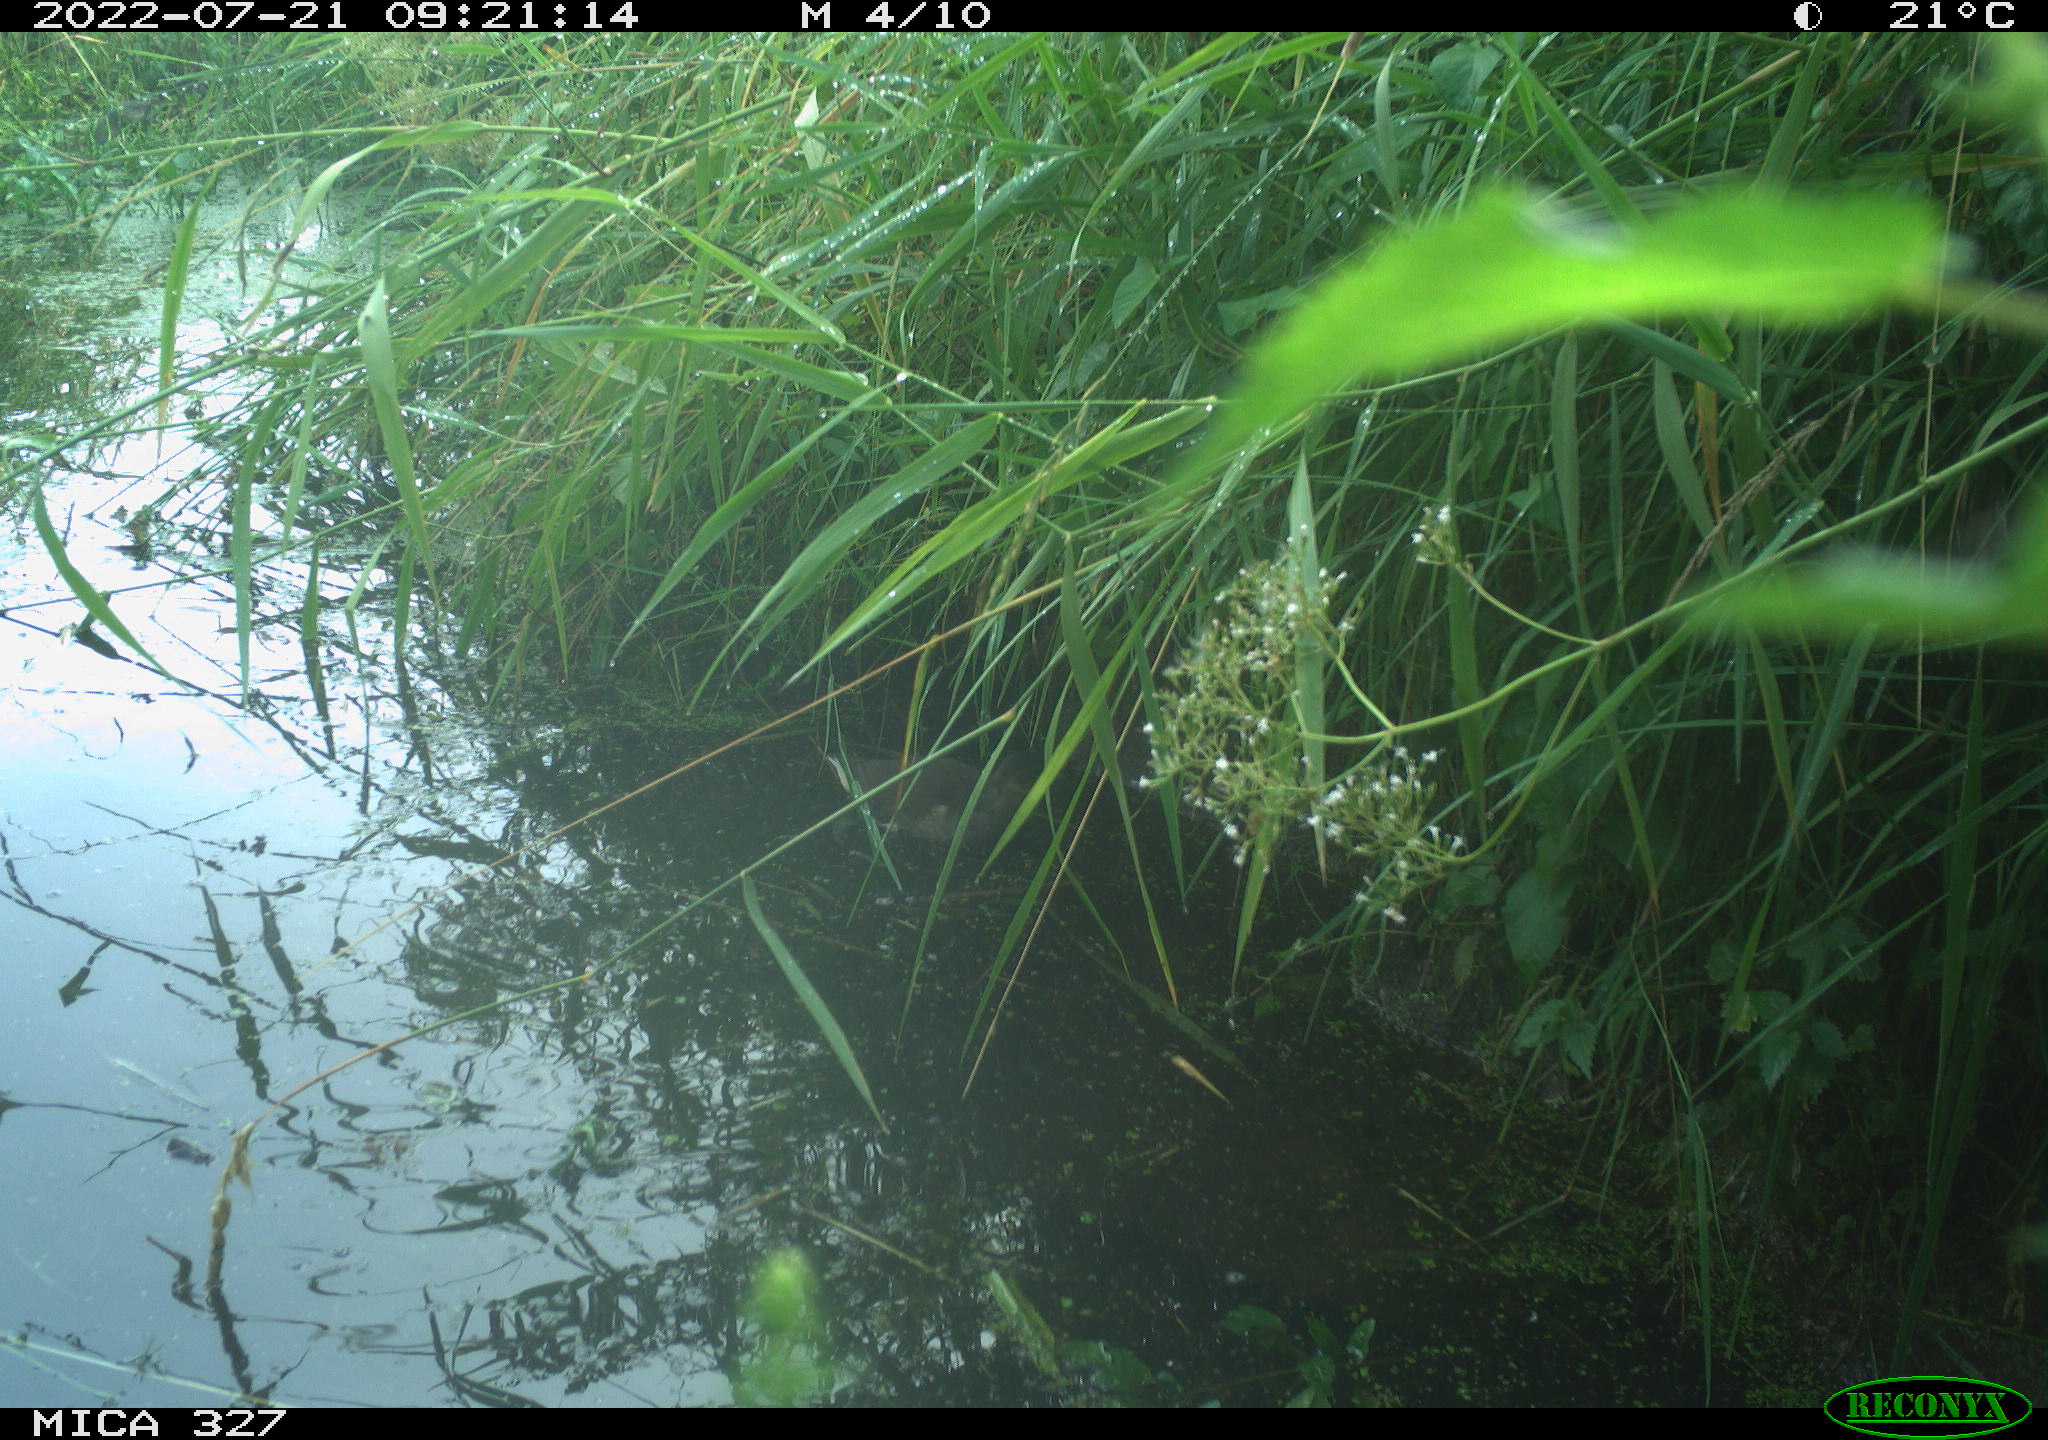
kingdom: Animalia
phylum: Chordata
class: Aves
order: Gruiformes
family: Rallidae
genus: Gallinula
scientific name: Gallinula chloropus
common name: Common moorhen
